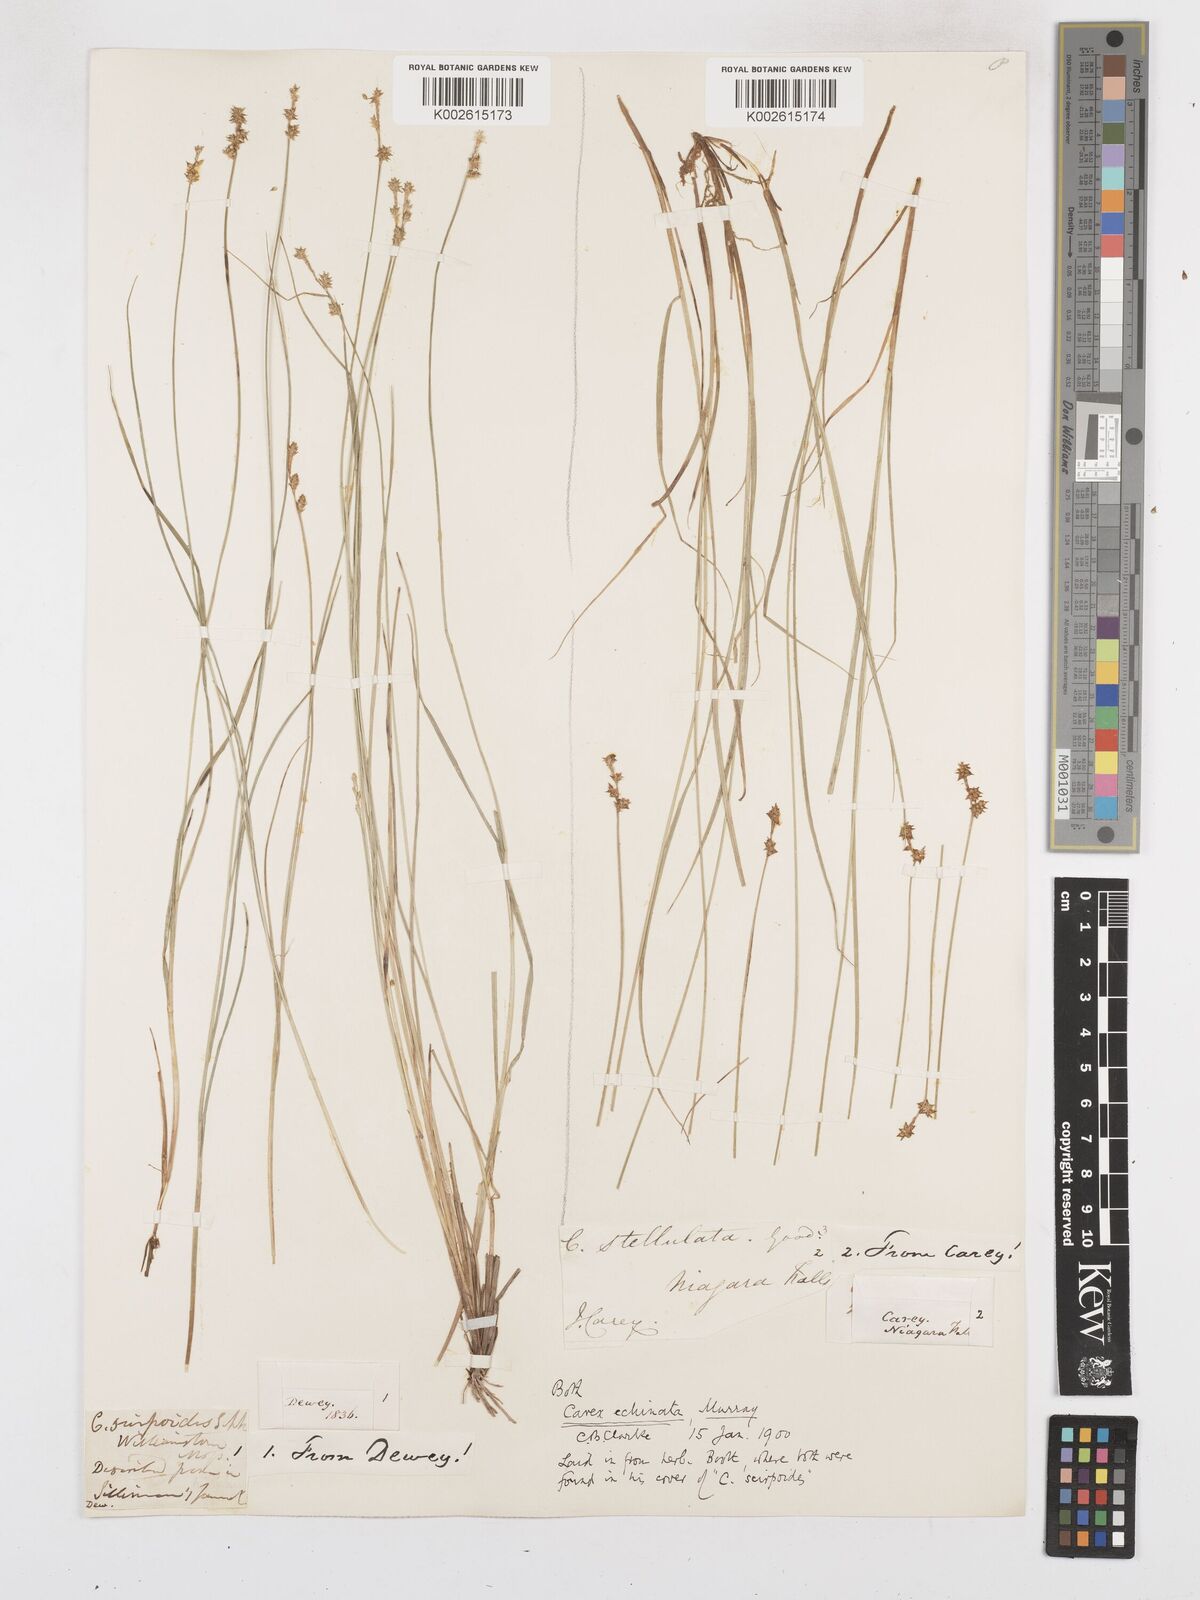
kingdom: Plantae
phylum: Tracheophyta
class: Liliopsida
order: Poales
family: Cyperaceae
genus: Carex
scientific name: Carex echinata
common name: Star sedge
